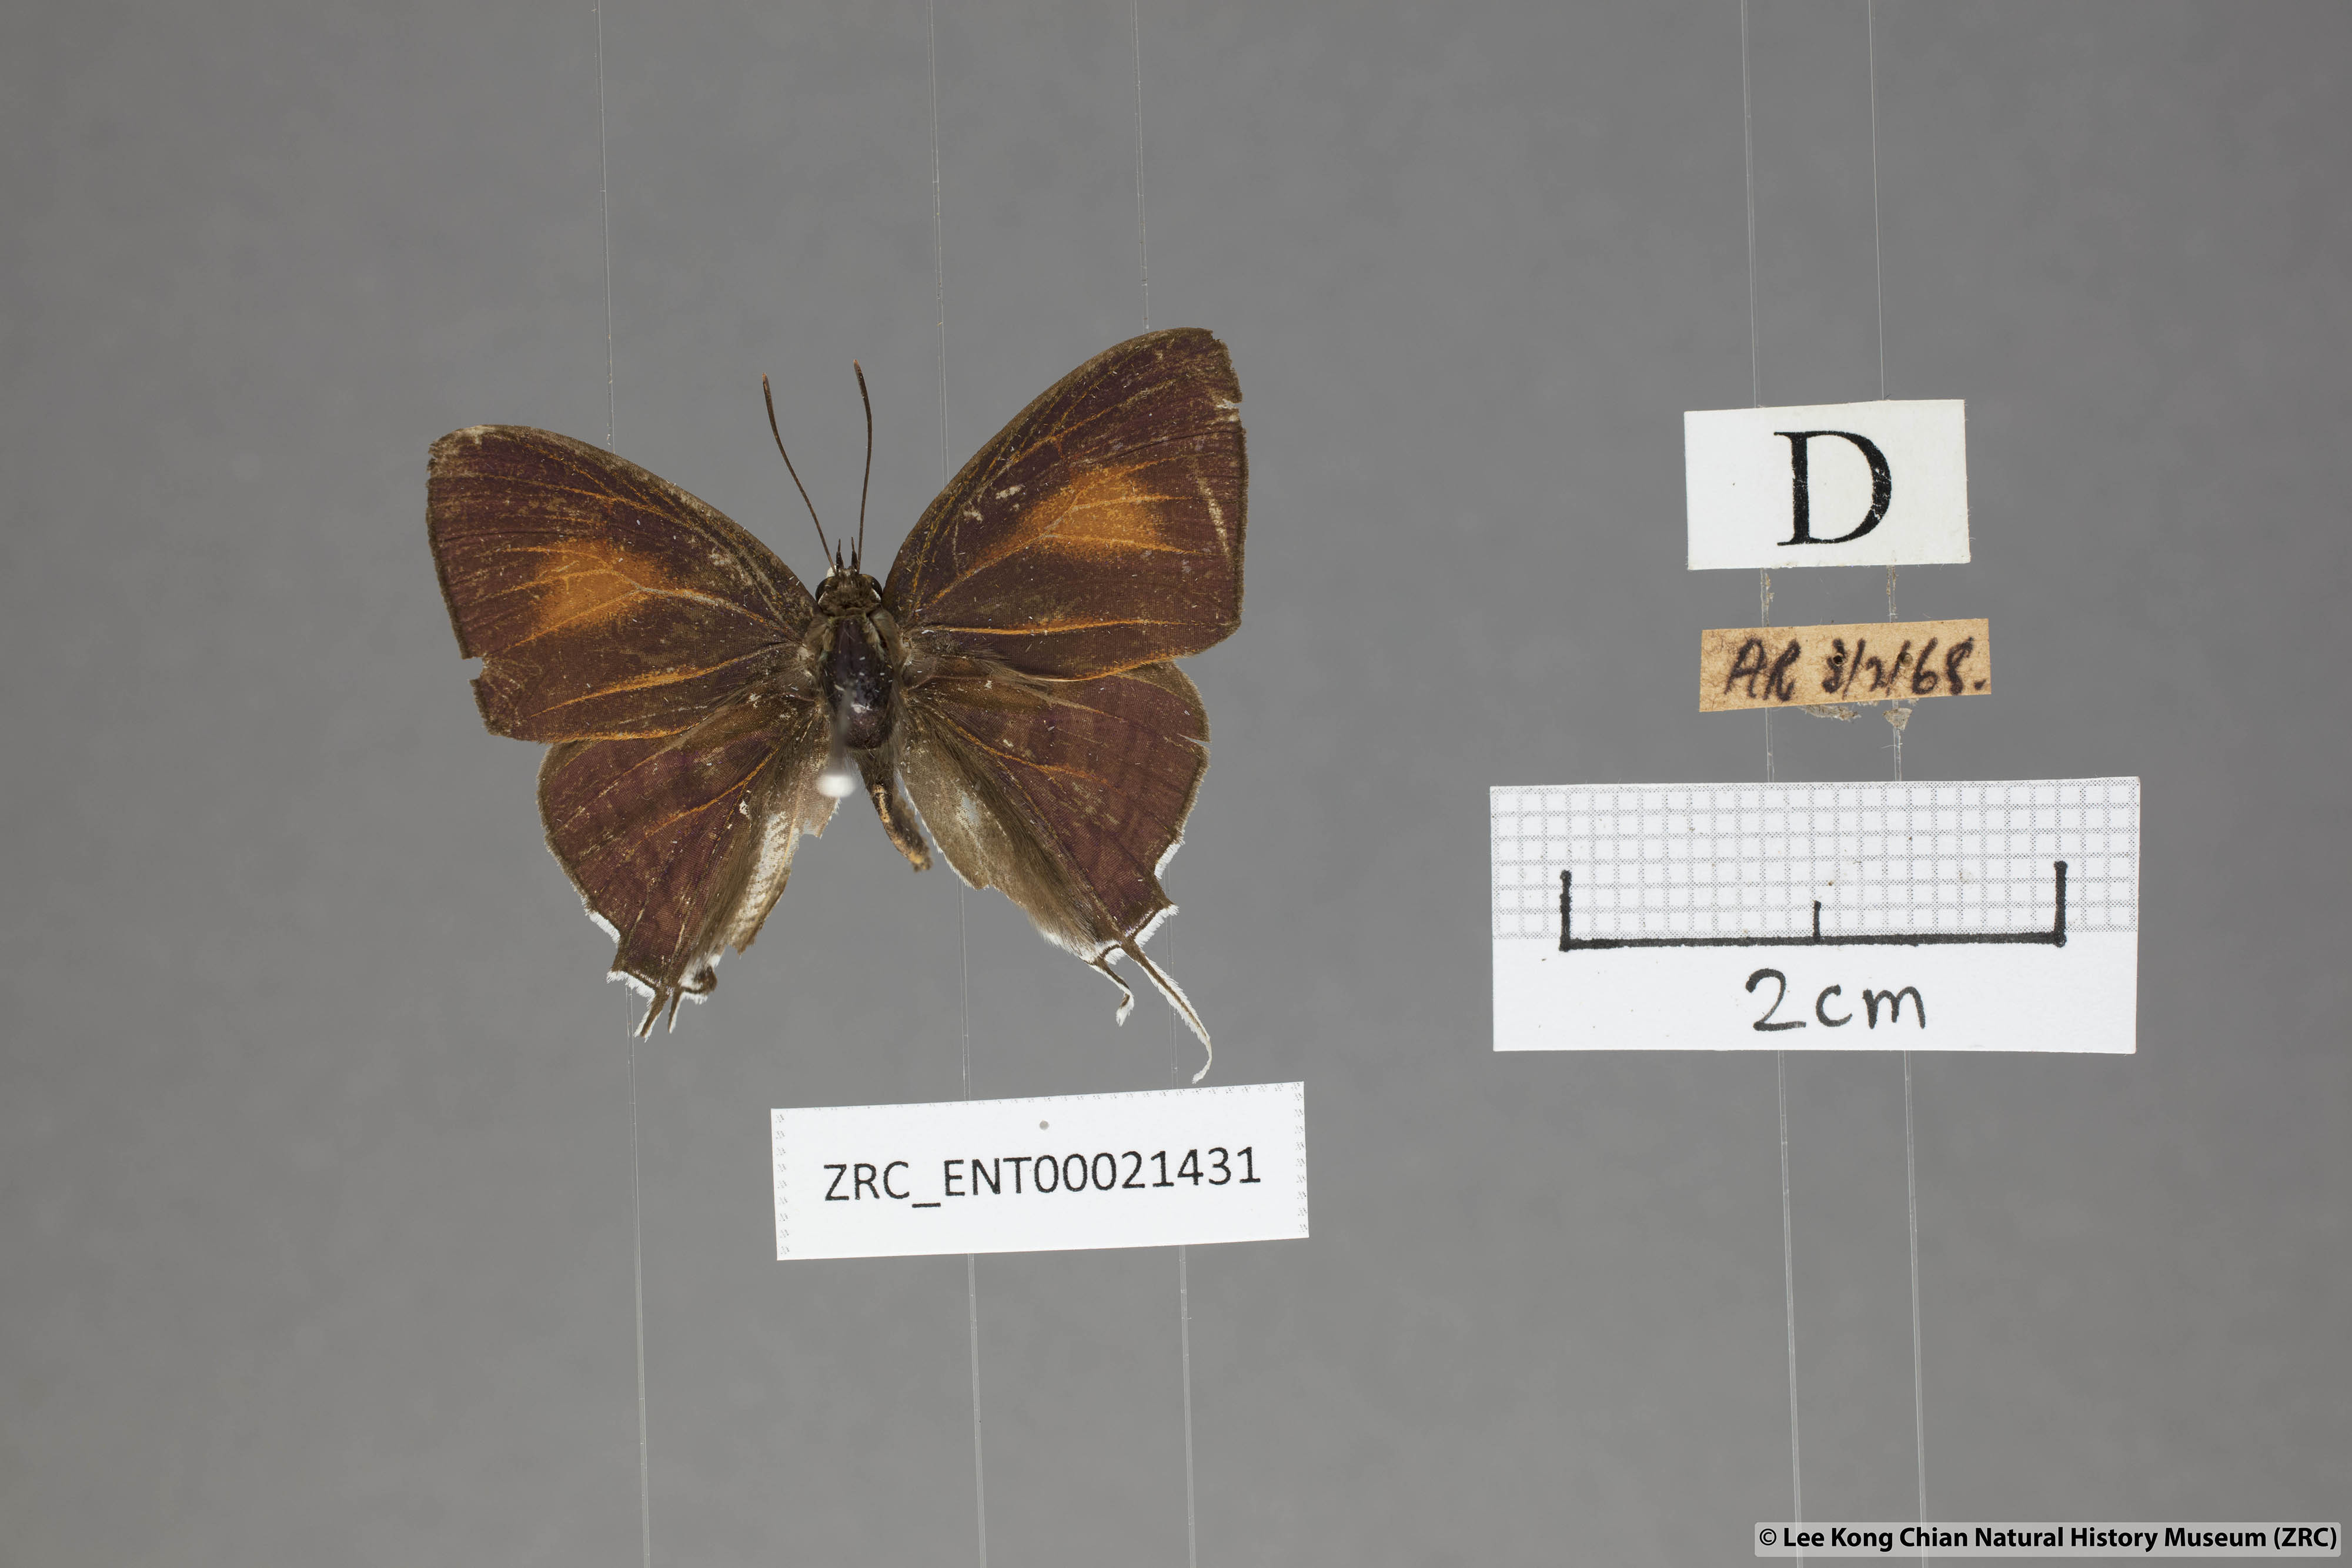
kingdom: Animalia
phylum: Arthropoda
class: Insecta
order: Lepidoptera
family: Lycaenidae
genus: Drupadia
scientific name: Drupadia theda
